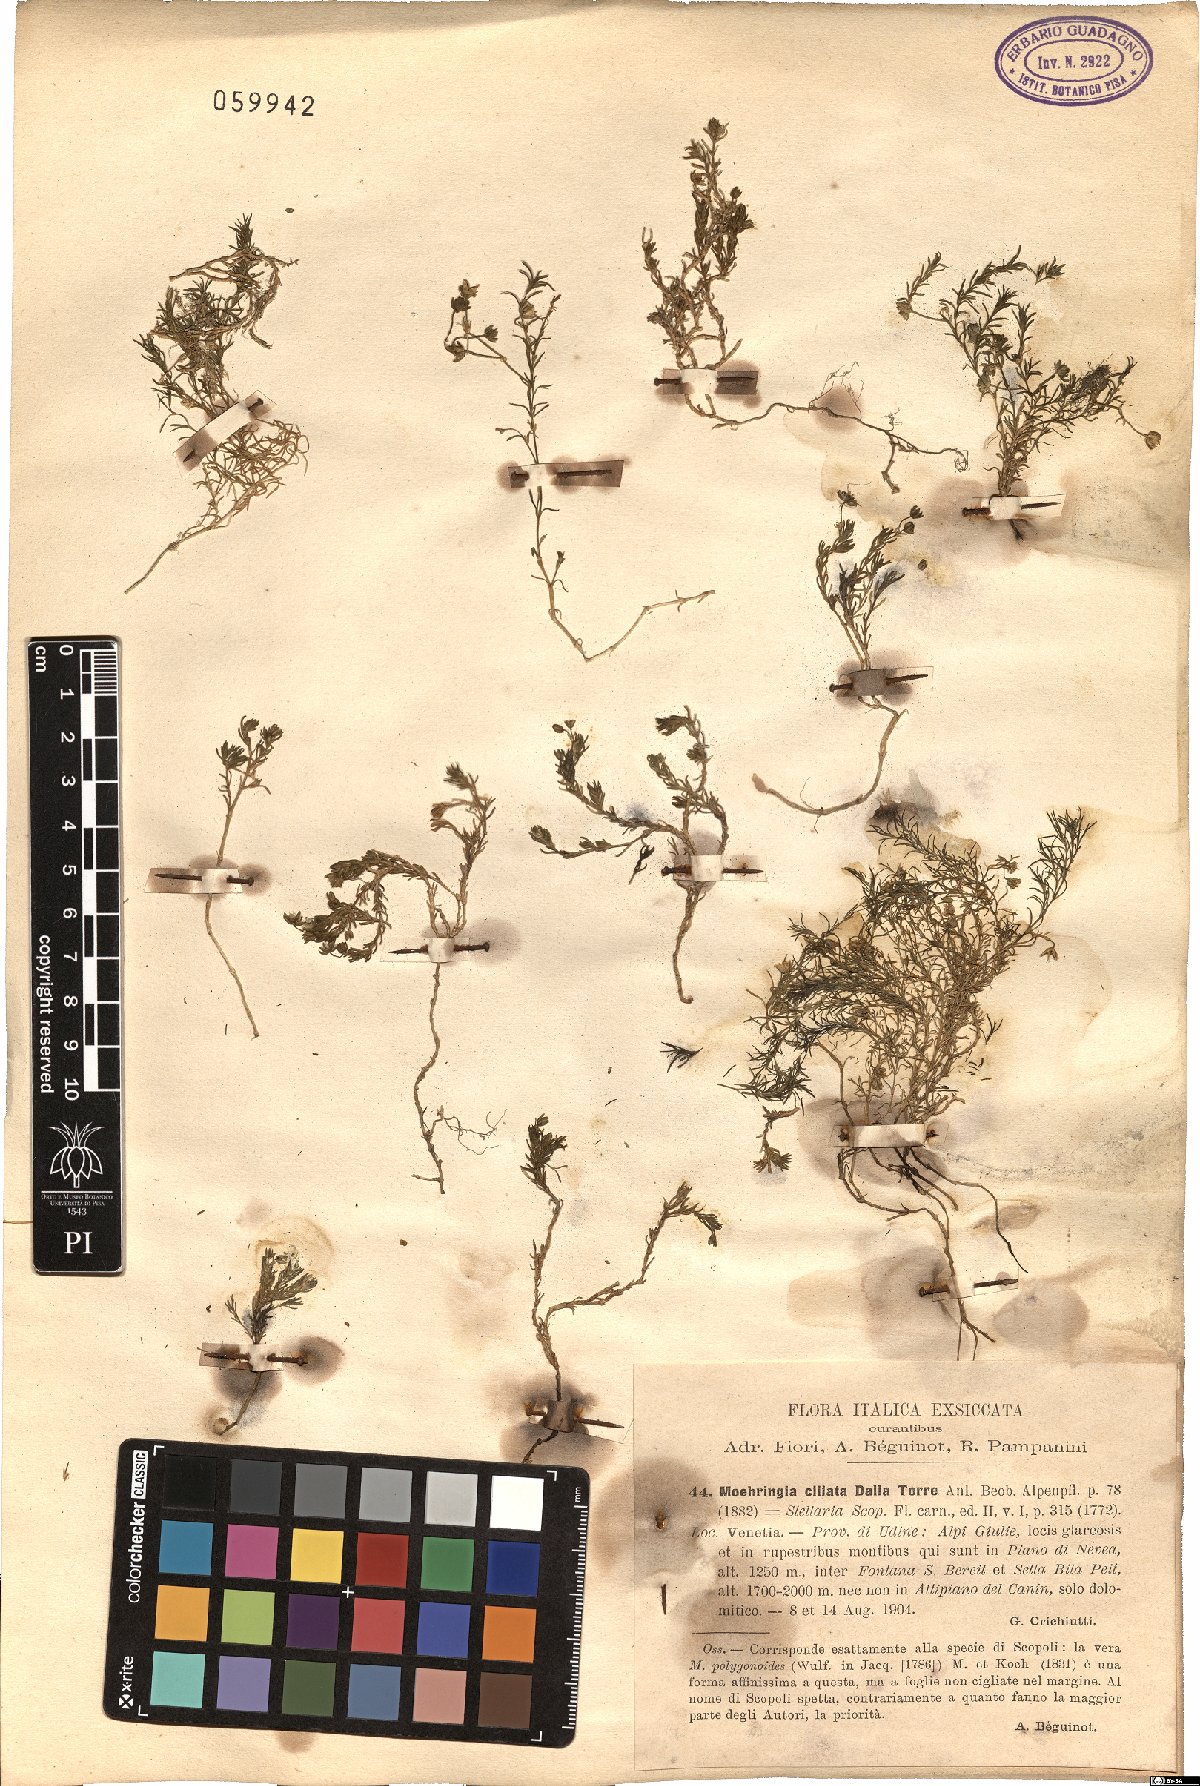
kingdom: Plantae
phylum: Tracheophyta
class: Magnoliopsida
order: Caryophyllales
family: Caryophyllaceae
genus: Moehringia
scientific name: Moehringia ciliata
